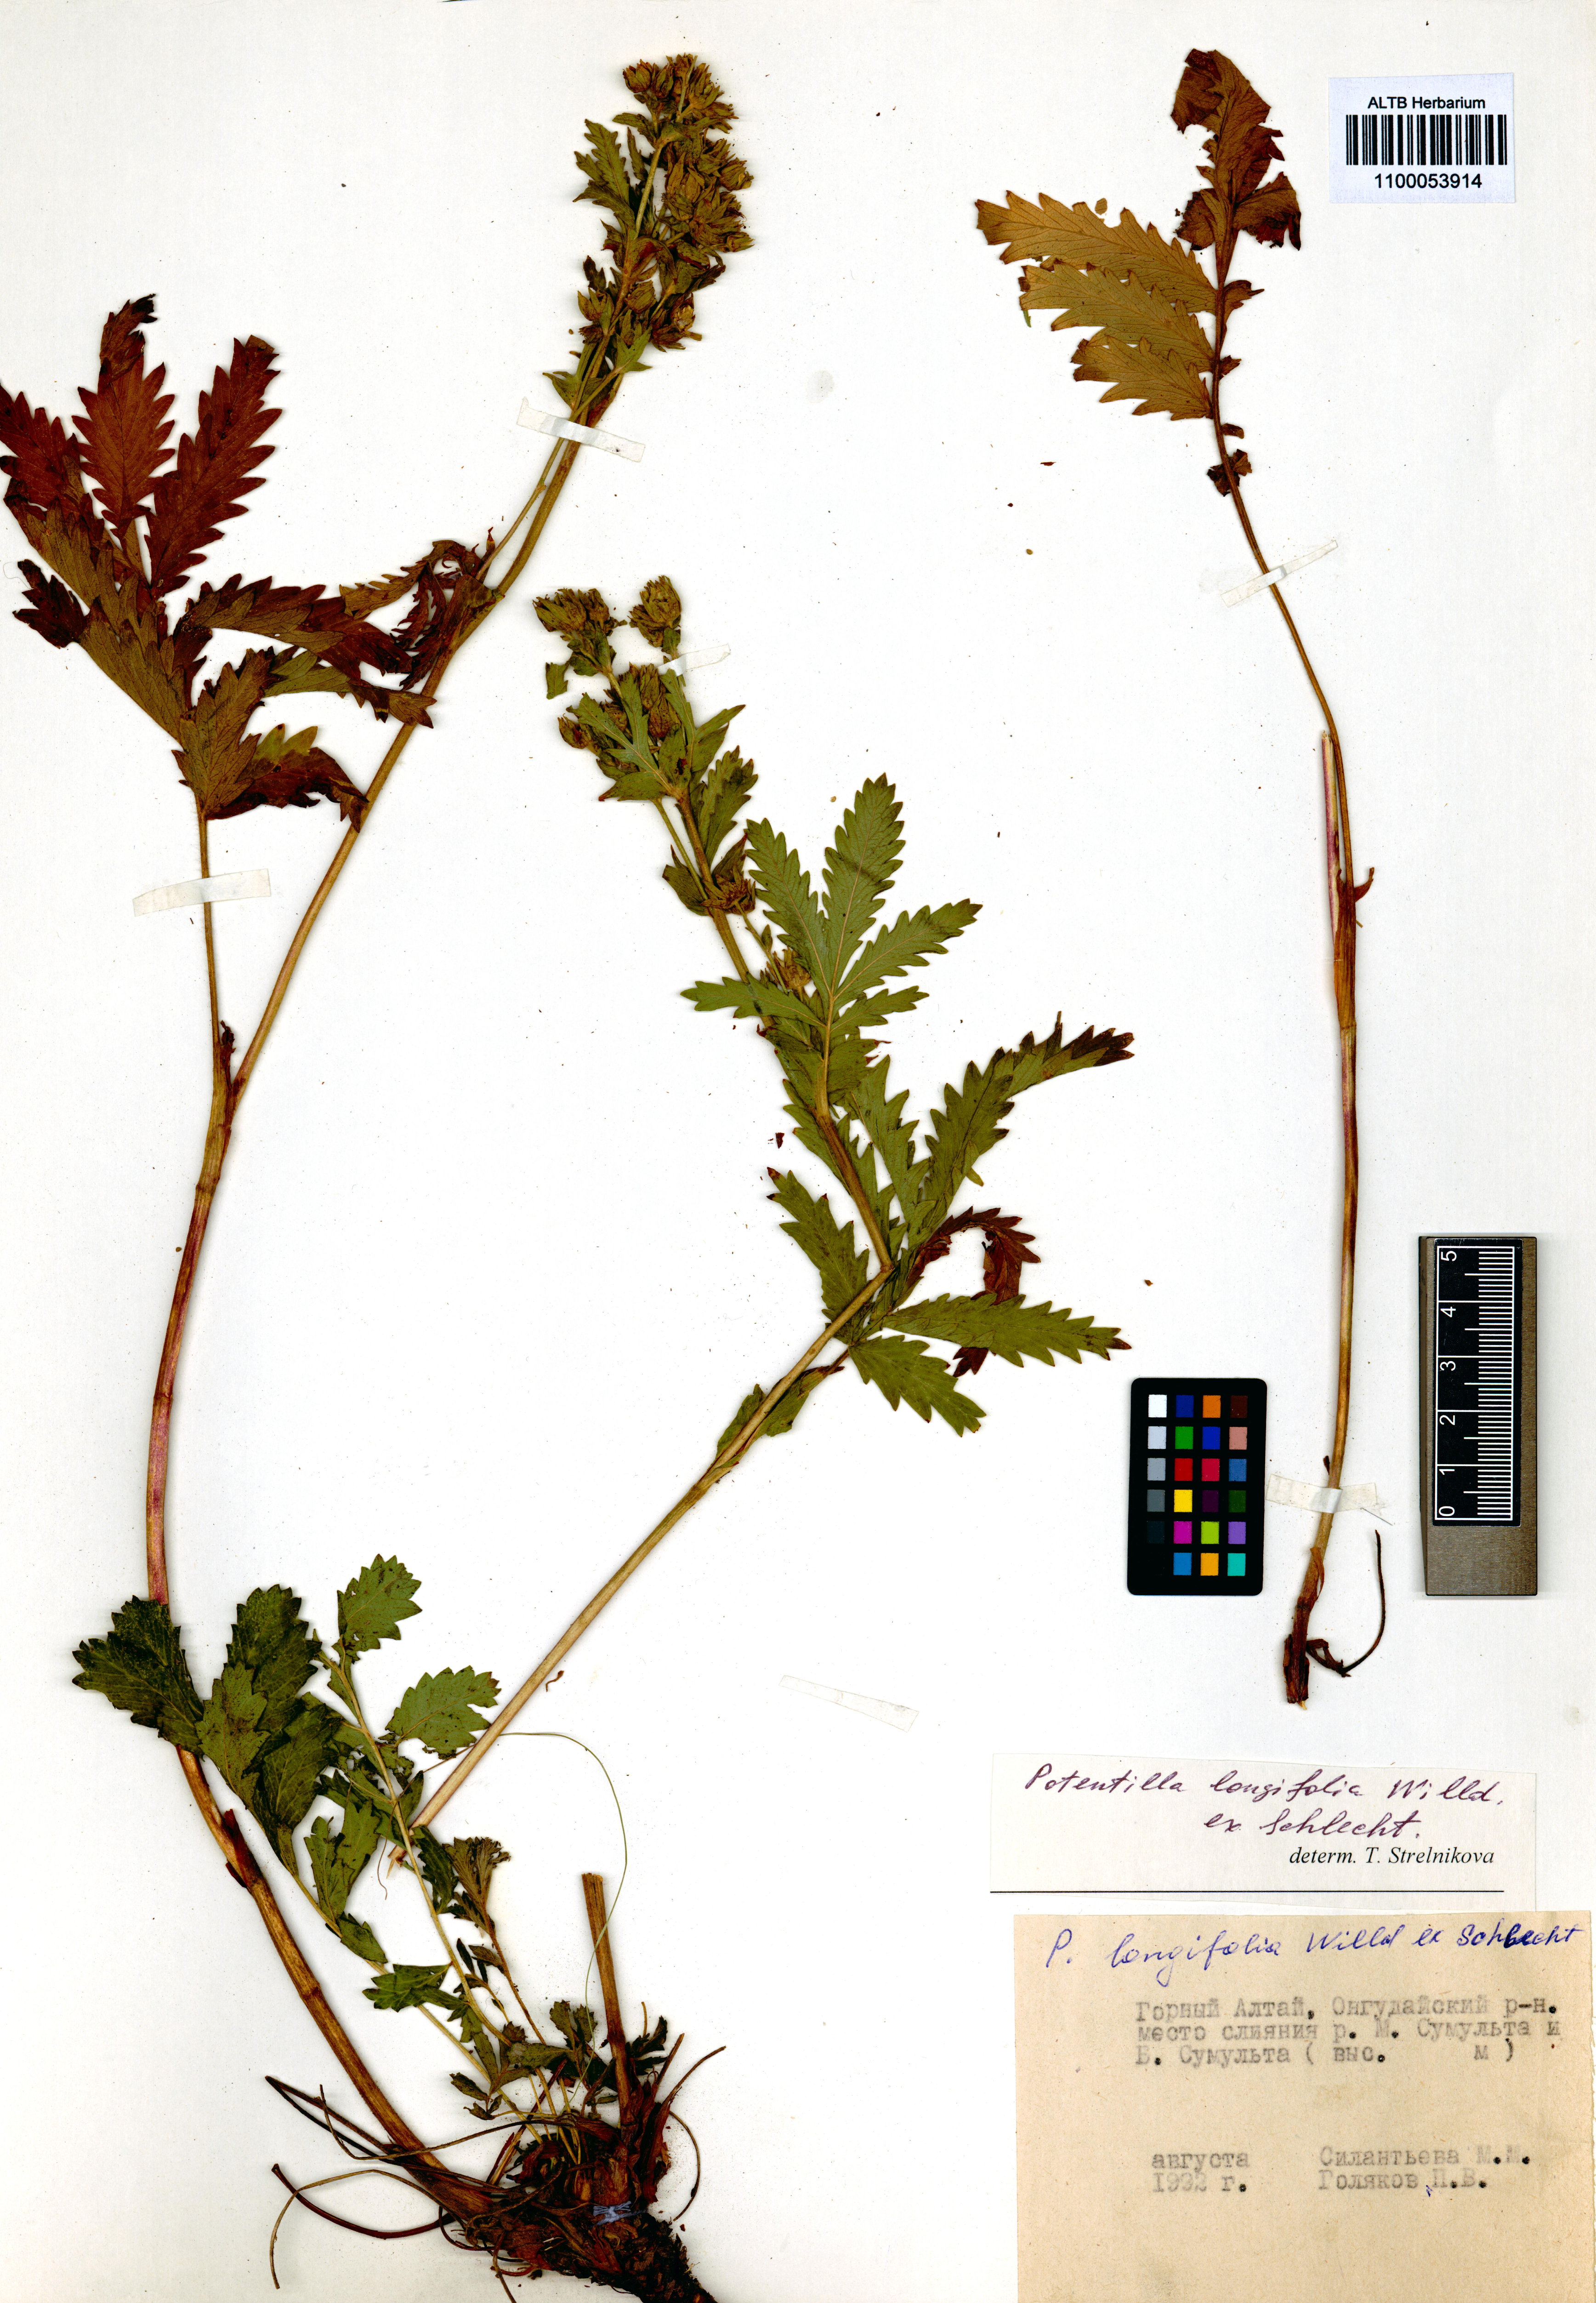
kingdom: Plantae
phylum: Tracheophyta
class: Magnoliopsida
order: Rosales
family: Rosaceae
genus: Potentilla
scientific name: Potentilla longifolia
